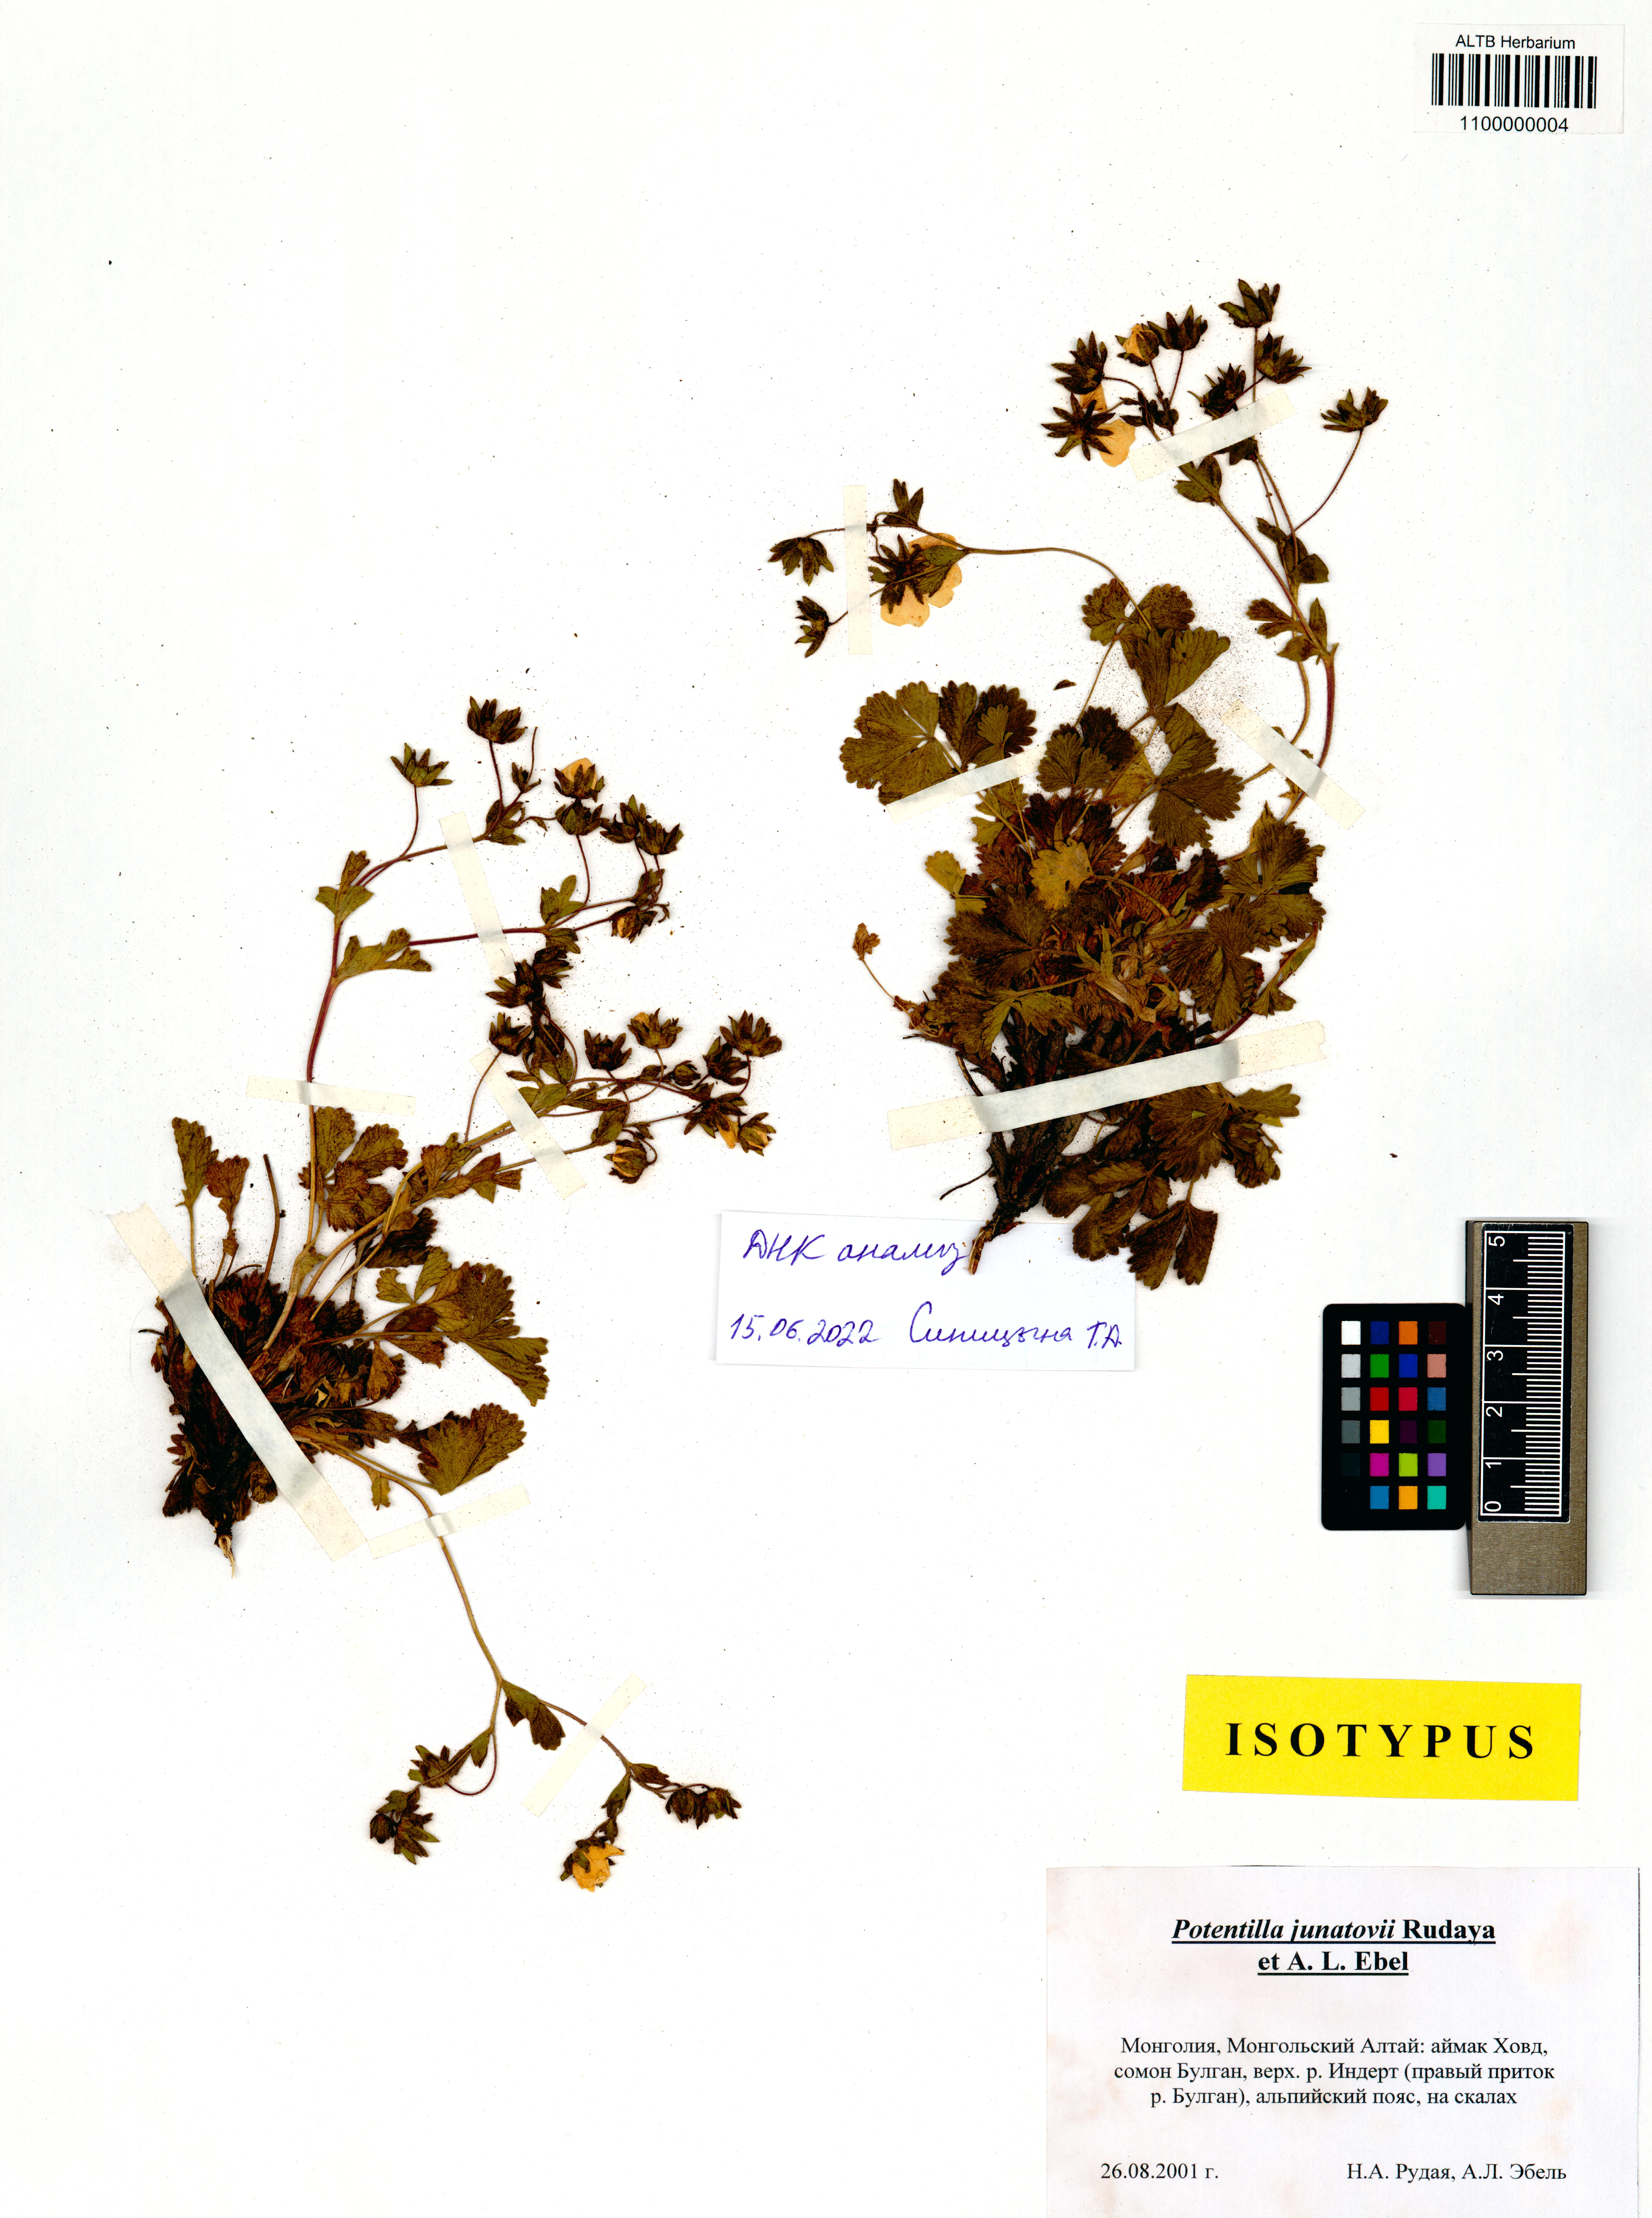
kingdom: Plantae
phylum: Tracheophyta
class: Magnoliopsida
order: Rosales
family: Rosaceae
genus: Potentilla
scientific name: Potentilla junatovii
